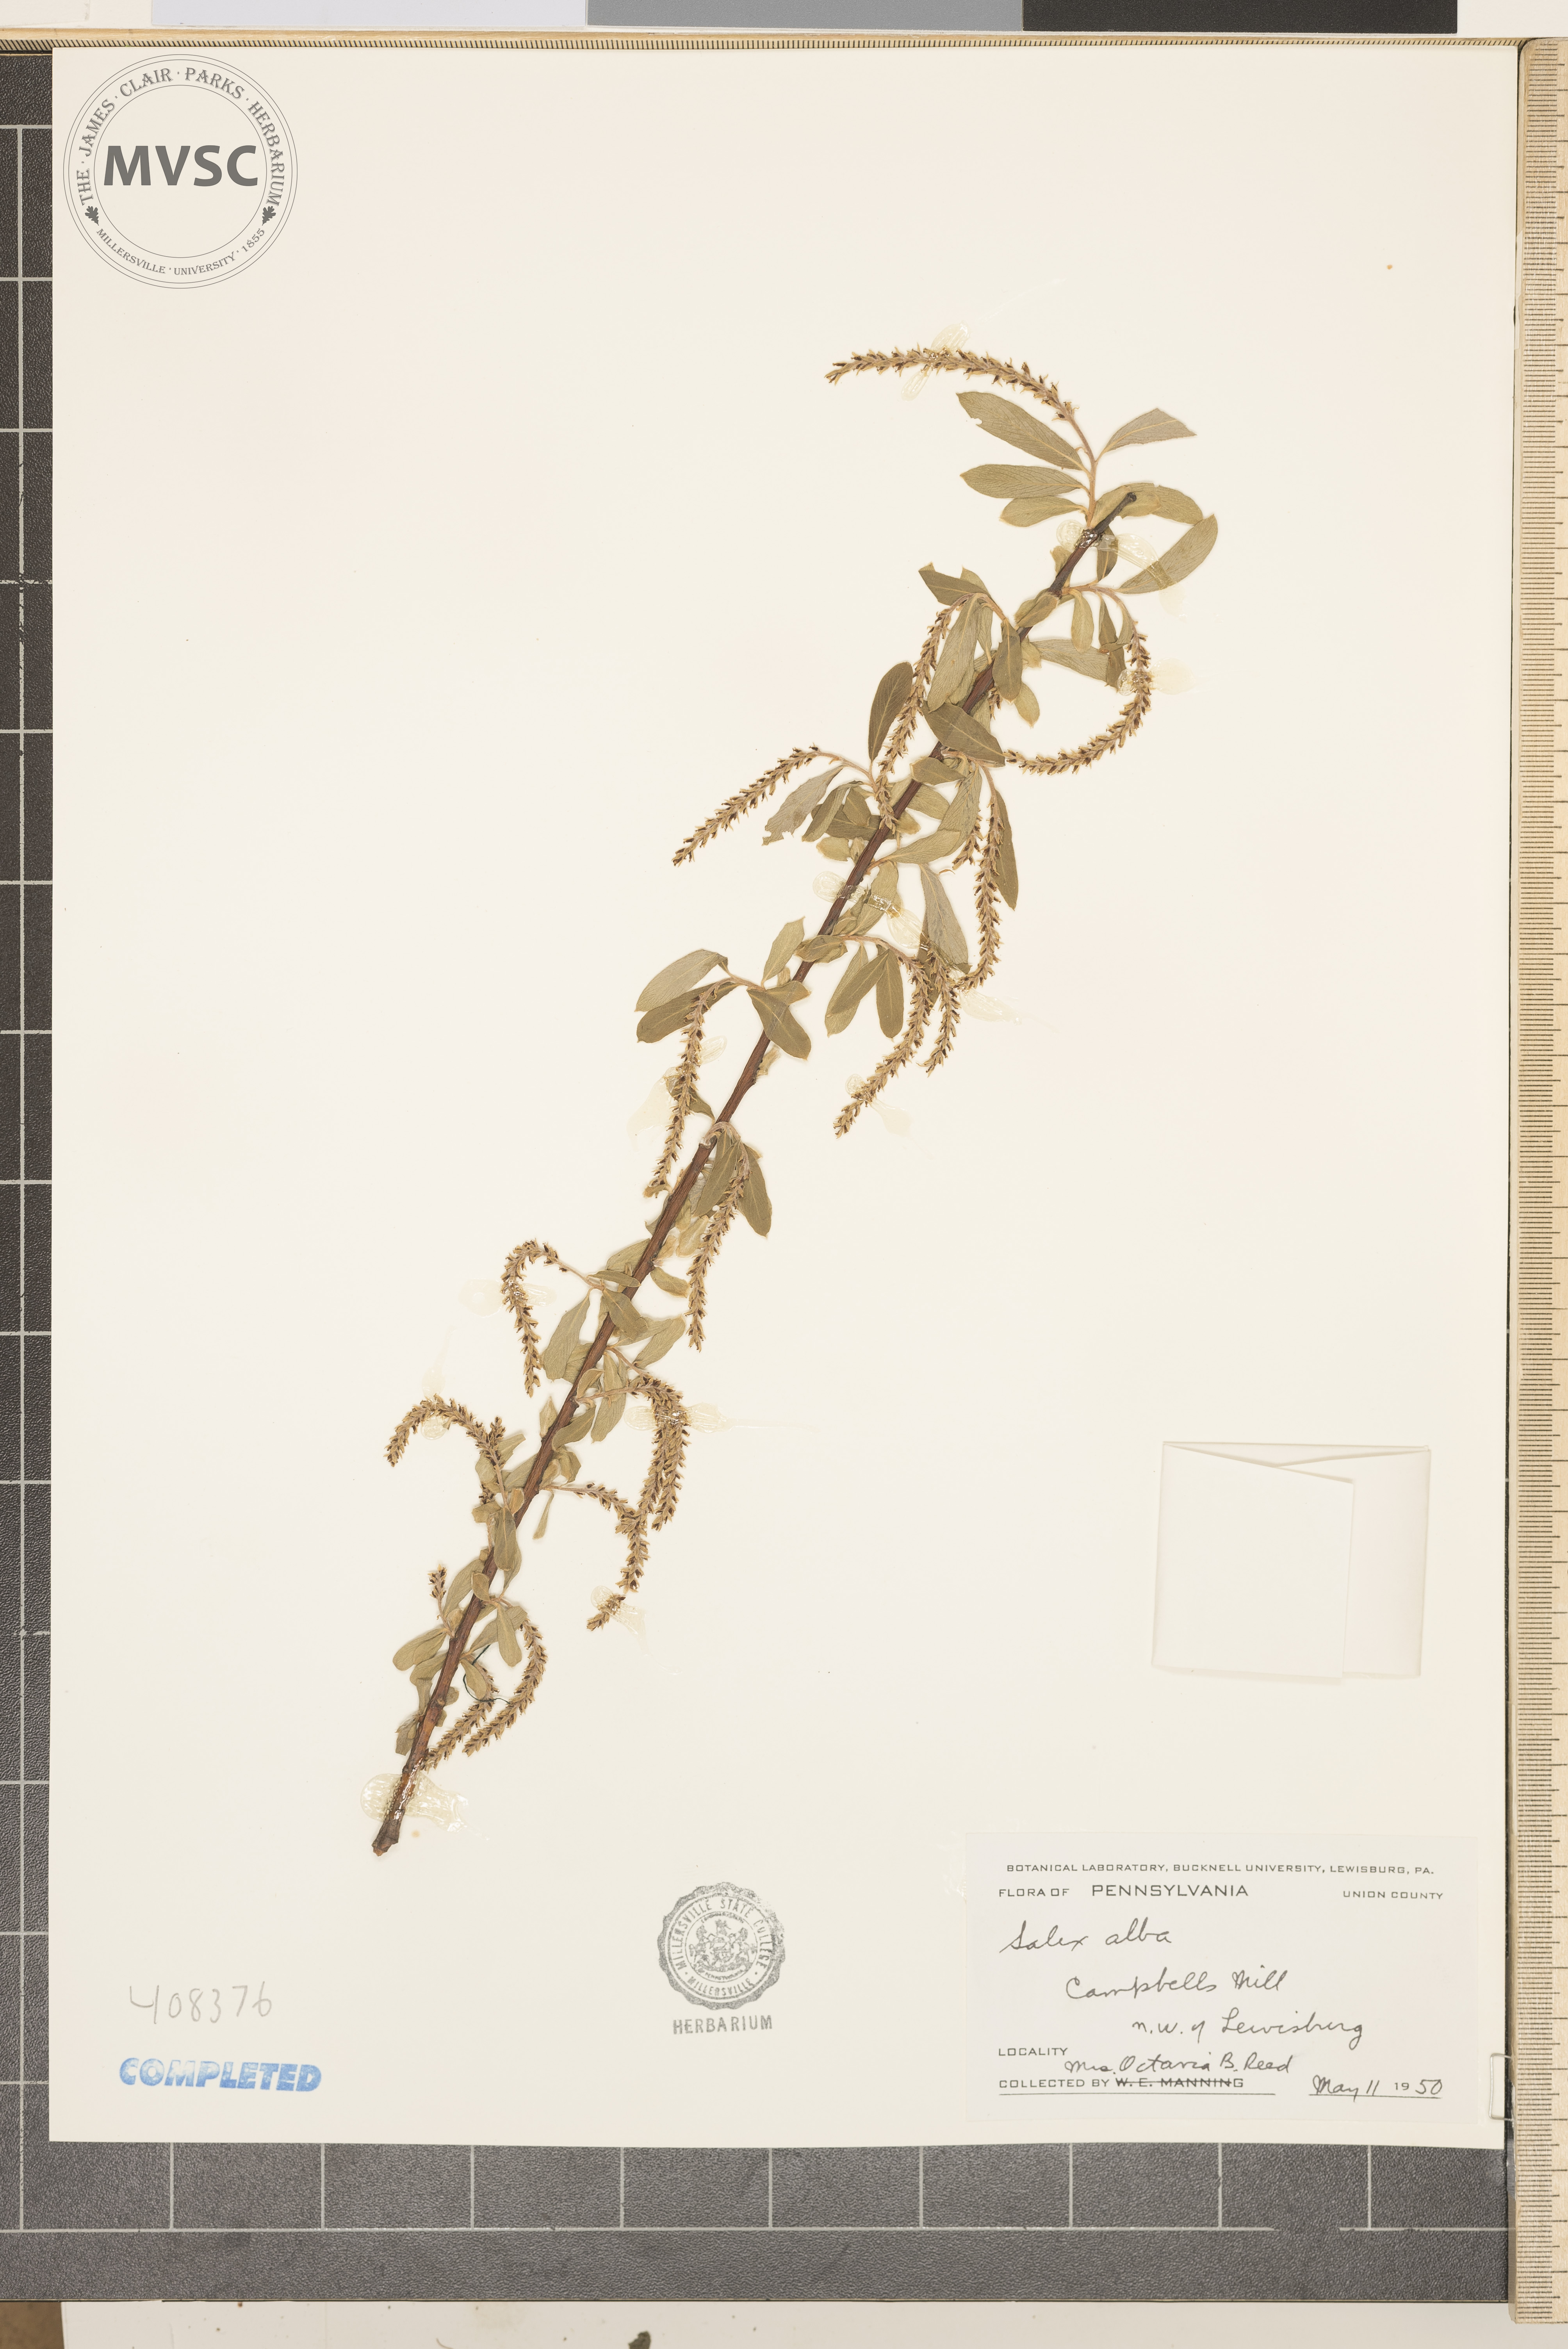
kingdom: Plantae
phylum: Tracheophyta
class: Magnoliopsida
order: Malpighiales
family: Salicaceae
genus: Salix
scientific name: Salix alba
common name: White willow
